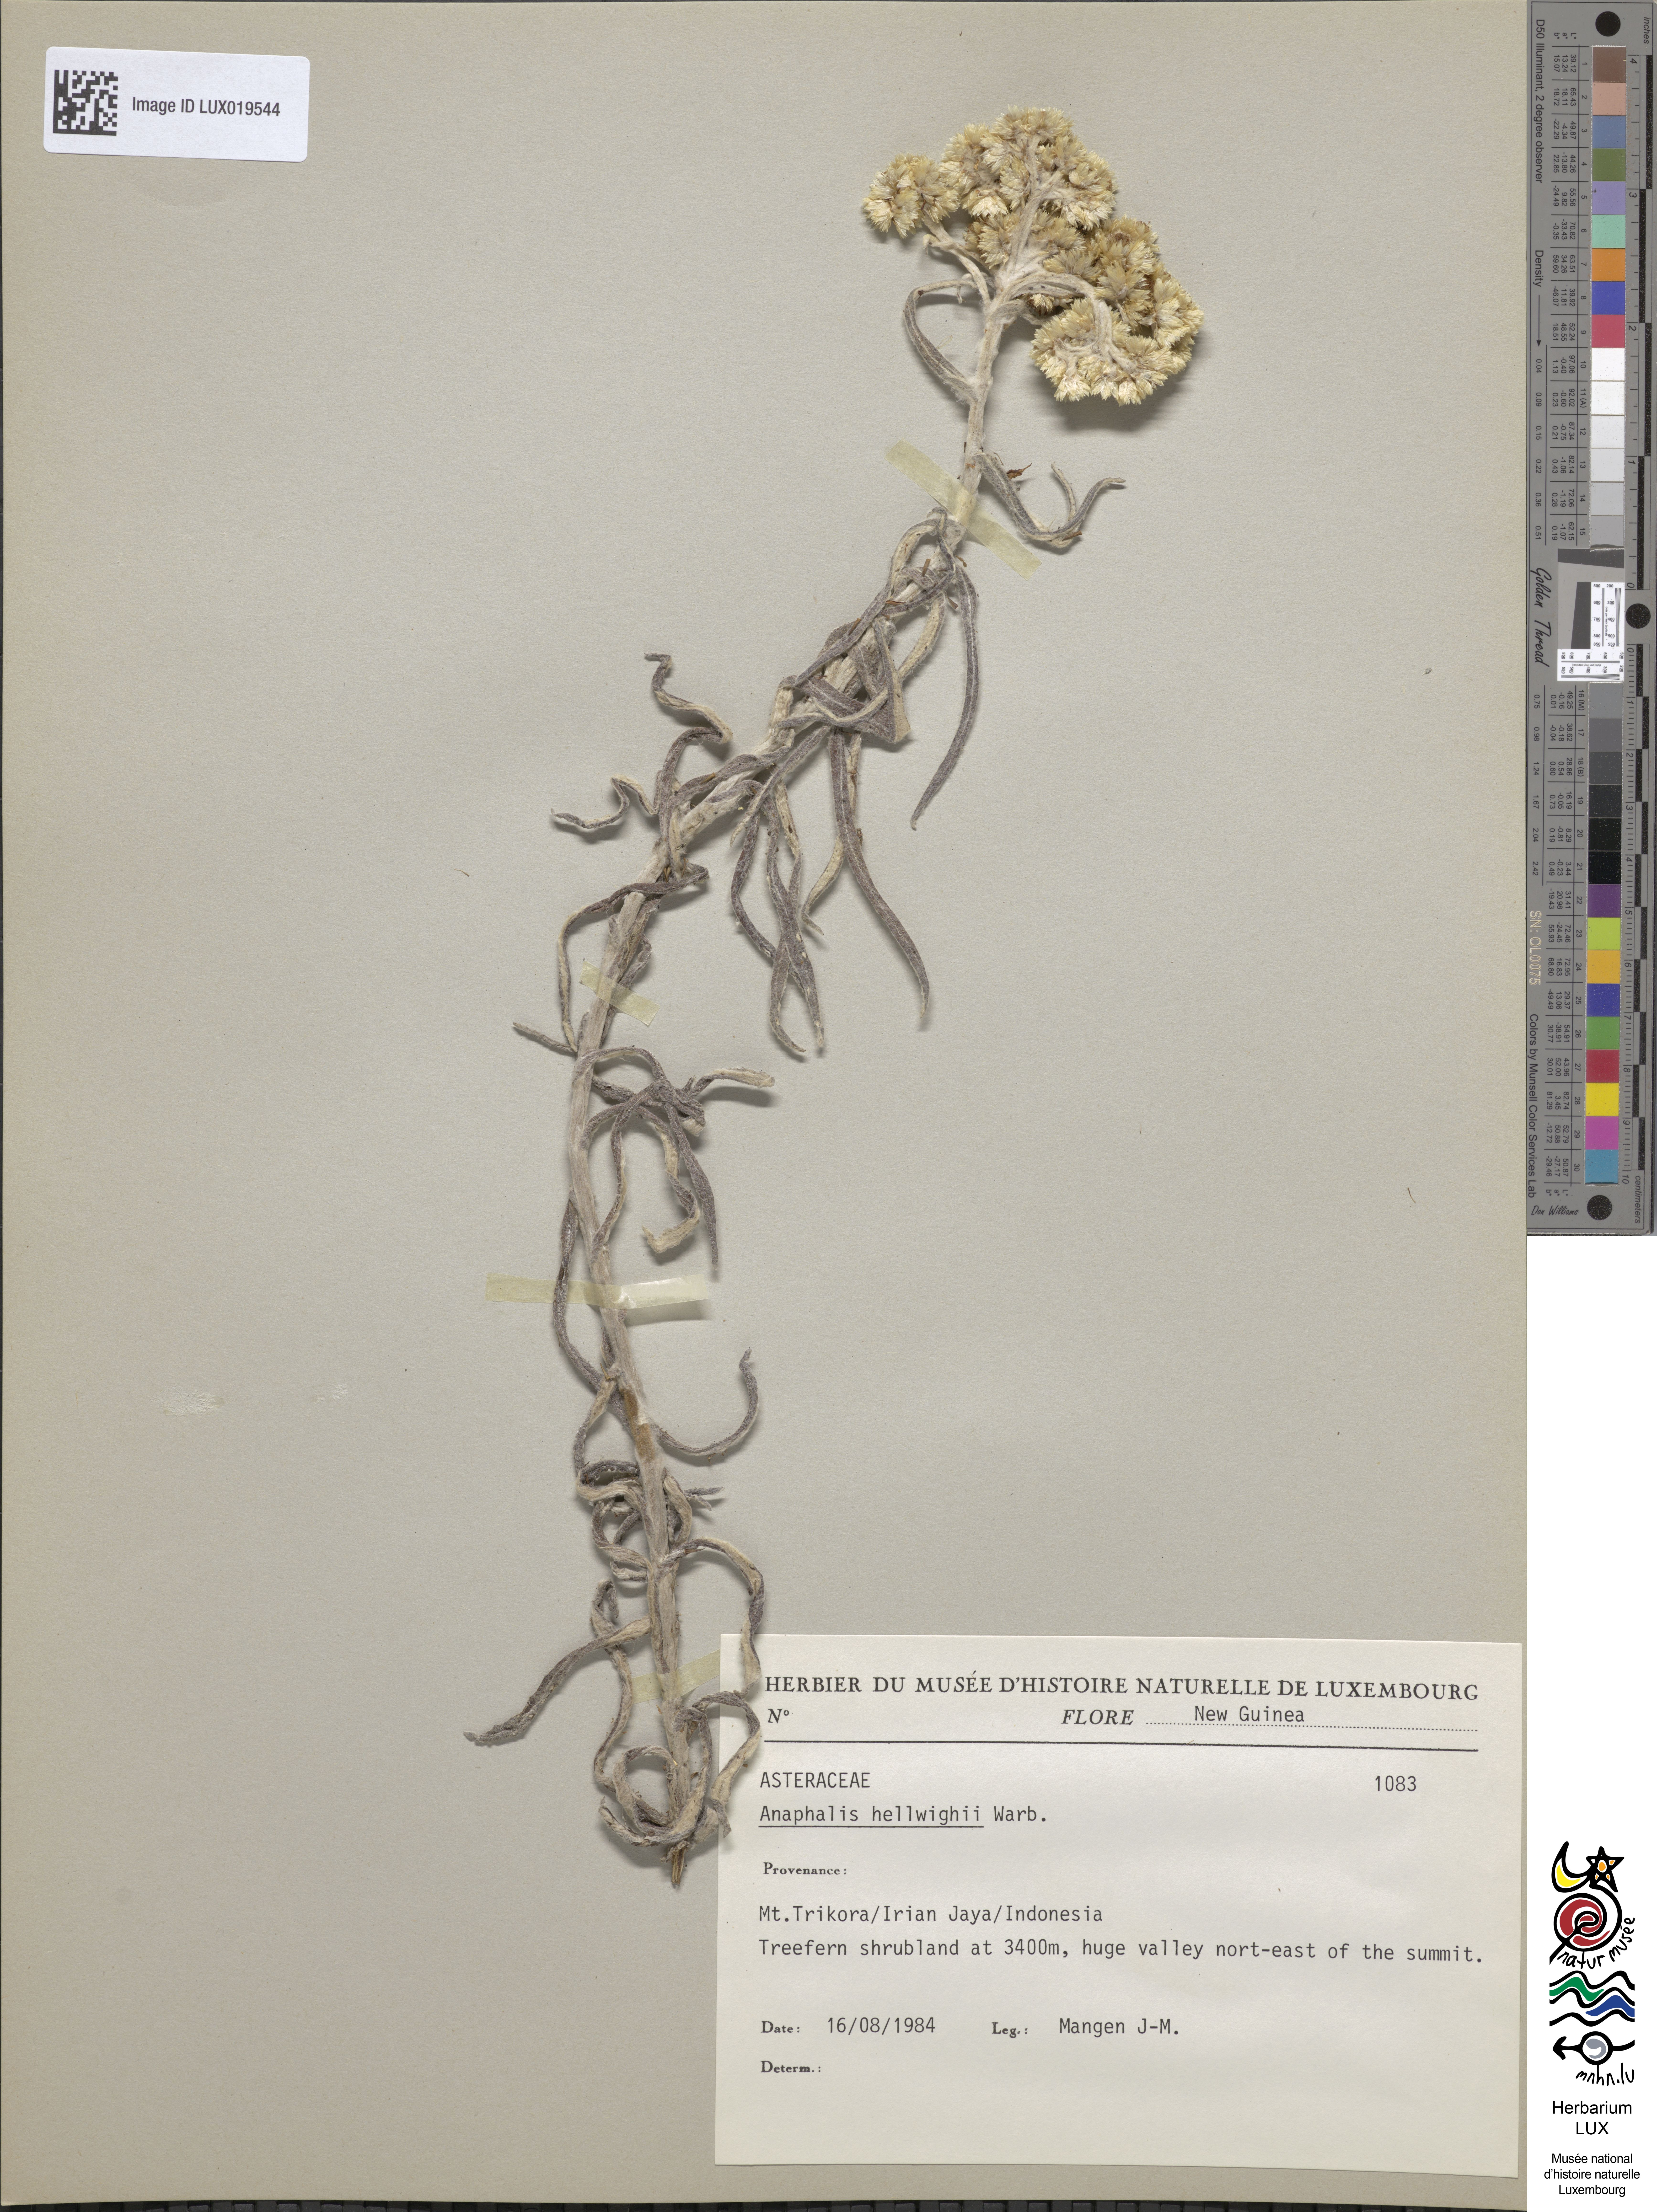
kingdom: Plantae
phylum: Tracheophyta
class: Magnoliopsida
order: Asterales
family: Asteraceae
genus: Anaphalis
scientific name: Anaphalis hellwigii
